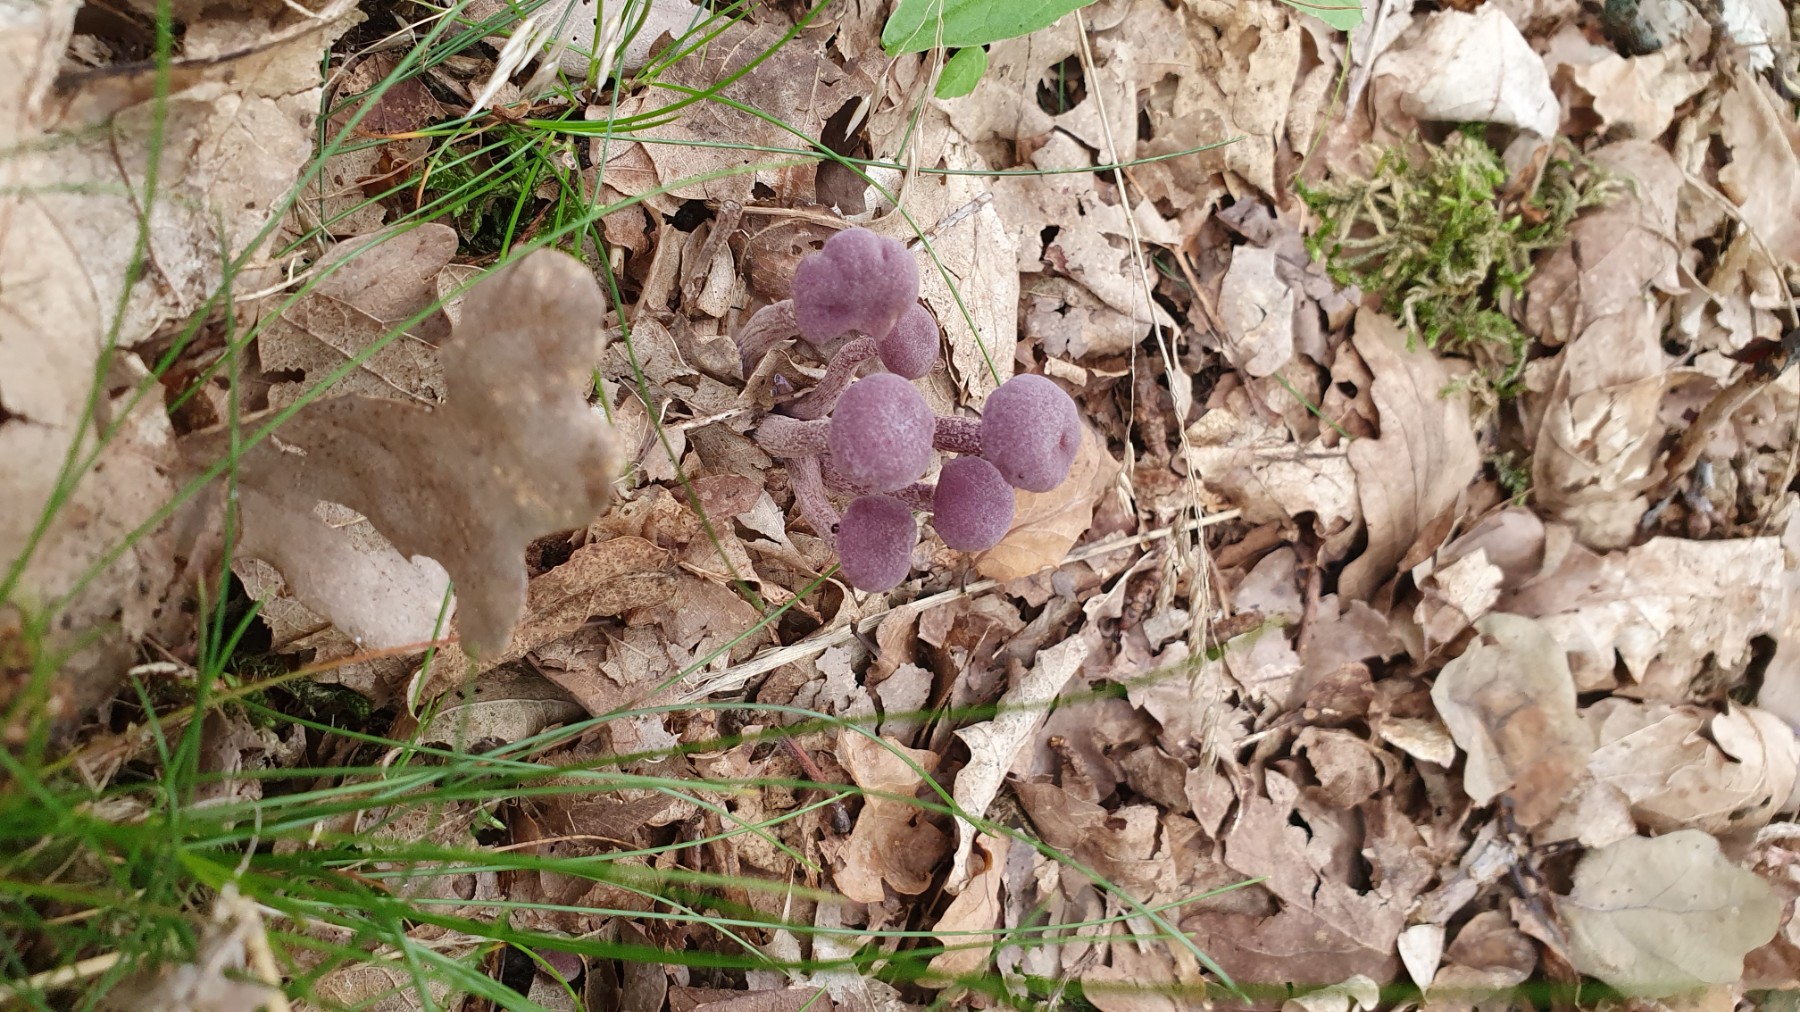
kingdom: Fungi
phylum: Basidiomycota
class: Agaricomycetes
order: Agaricales
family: Hydnangiaceae
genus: Laccaria
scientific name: Laccaria amethystina
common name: violet ametysthat
